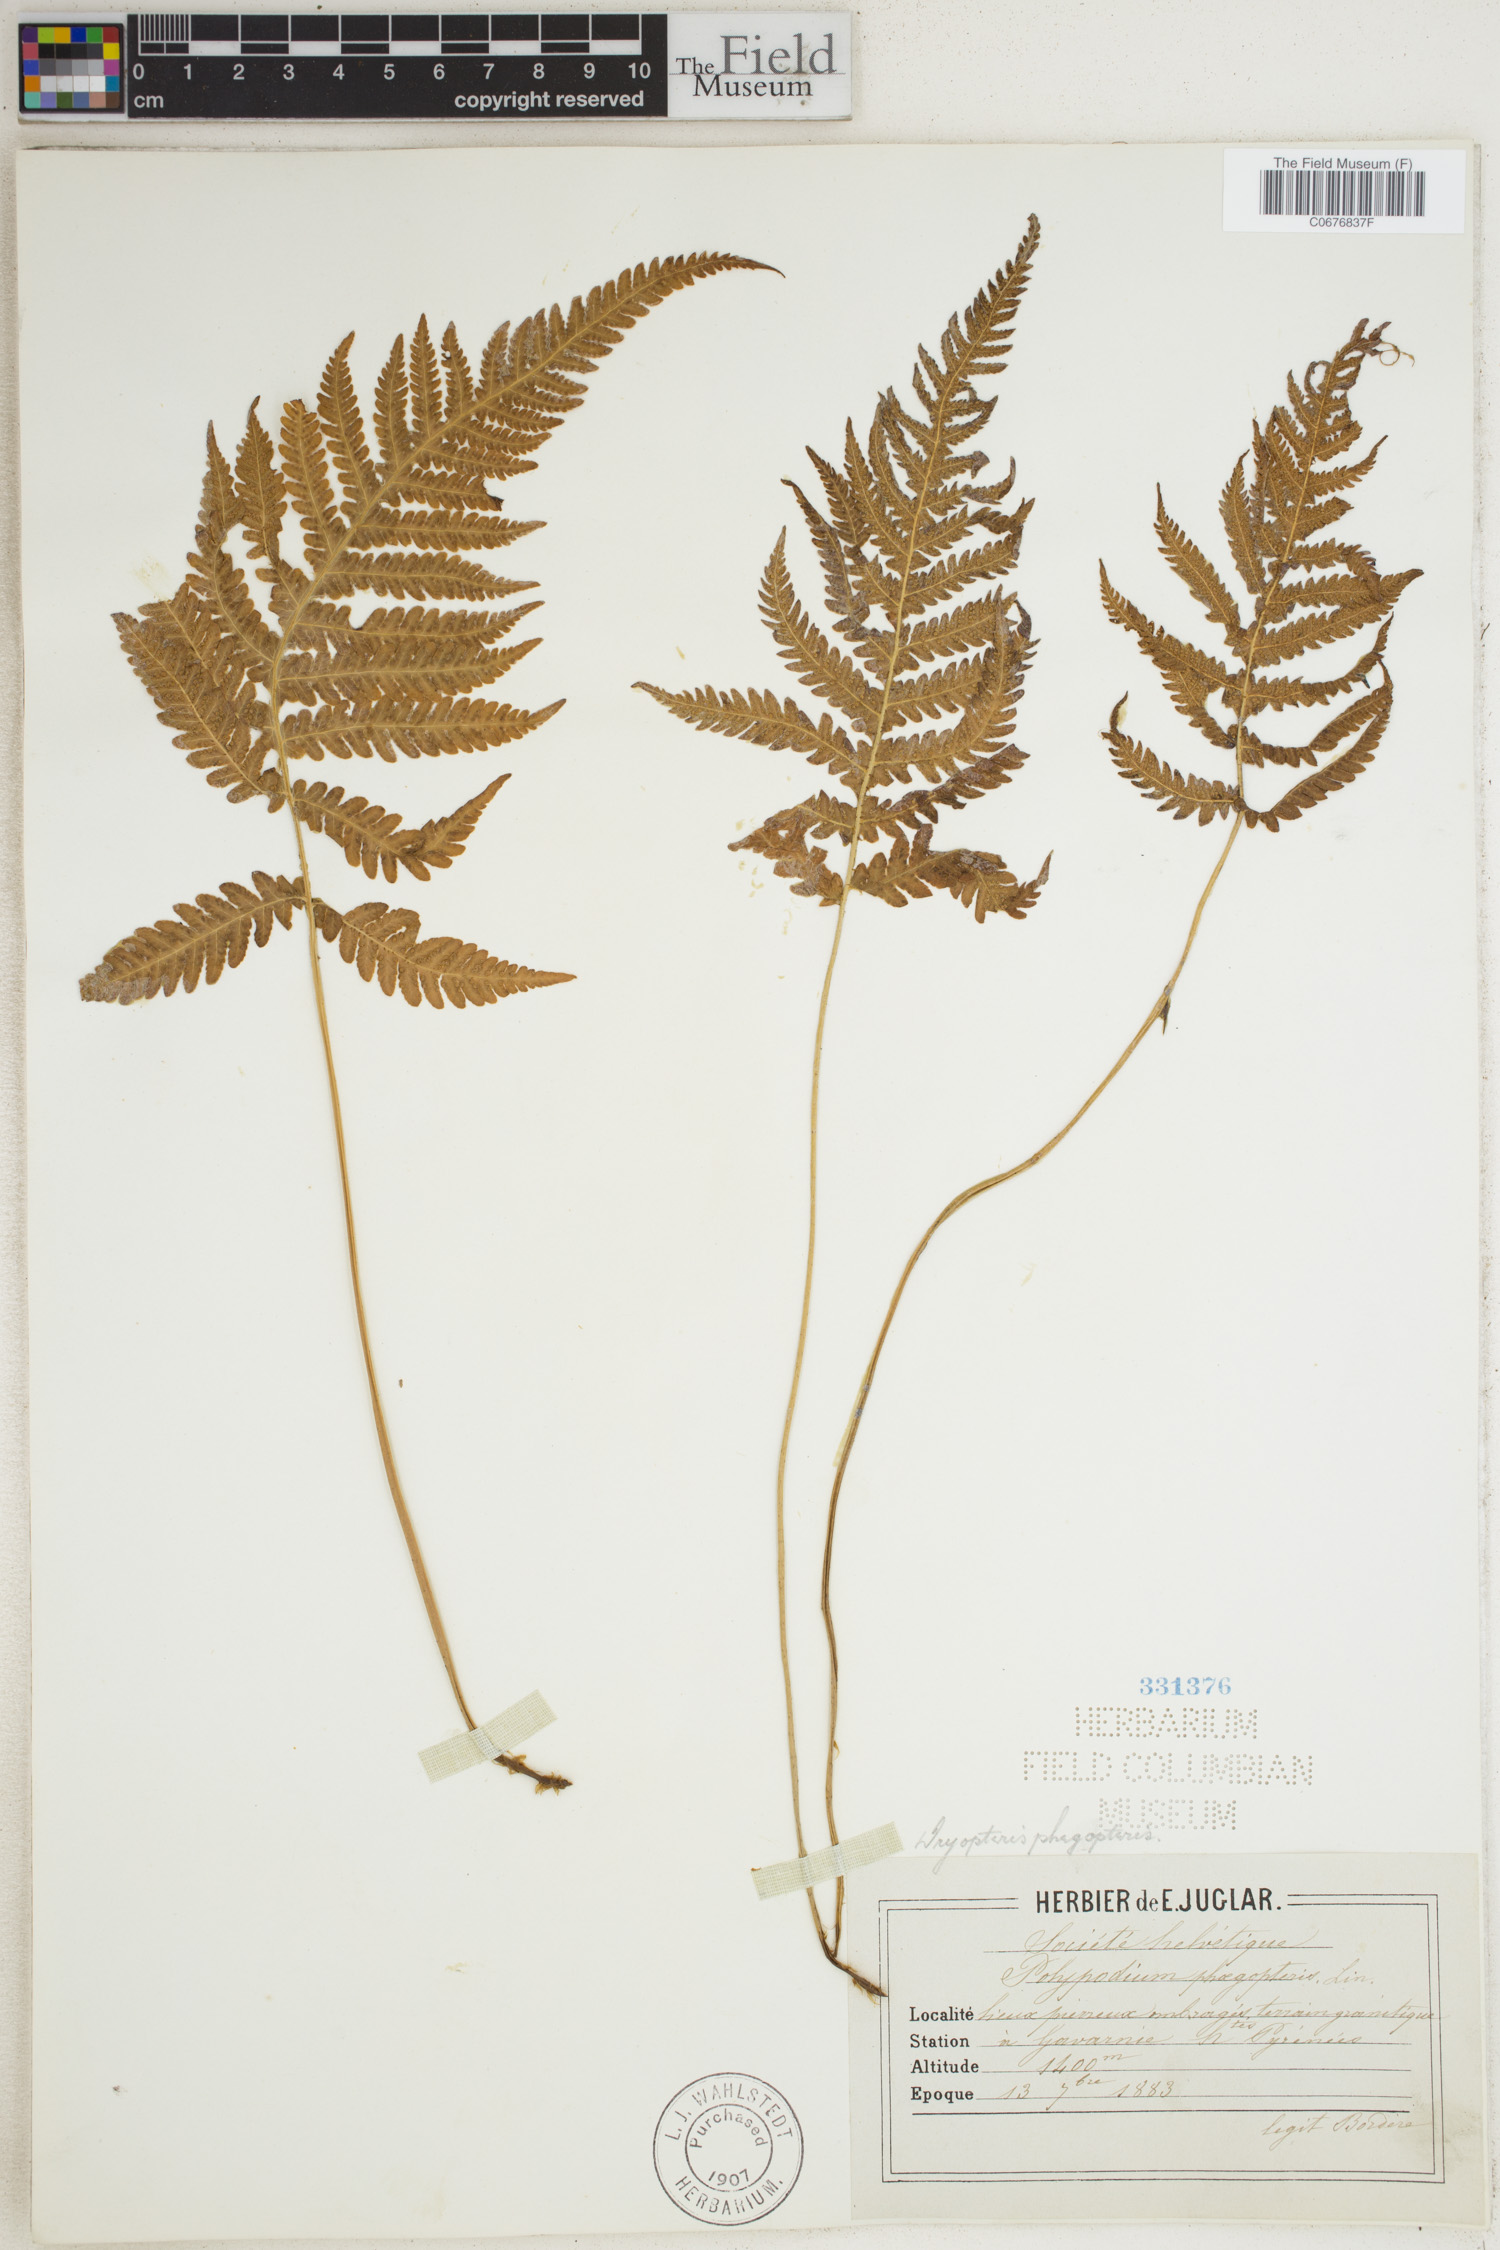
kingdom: Plantae
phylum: Tracheophyta
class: Polypodiopsida
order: Polypodiales
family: Thelypteridaceae
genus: Phegopteris
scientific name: Phegopteris connectilis
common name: Beech fern
